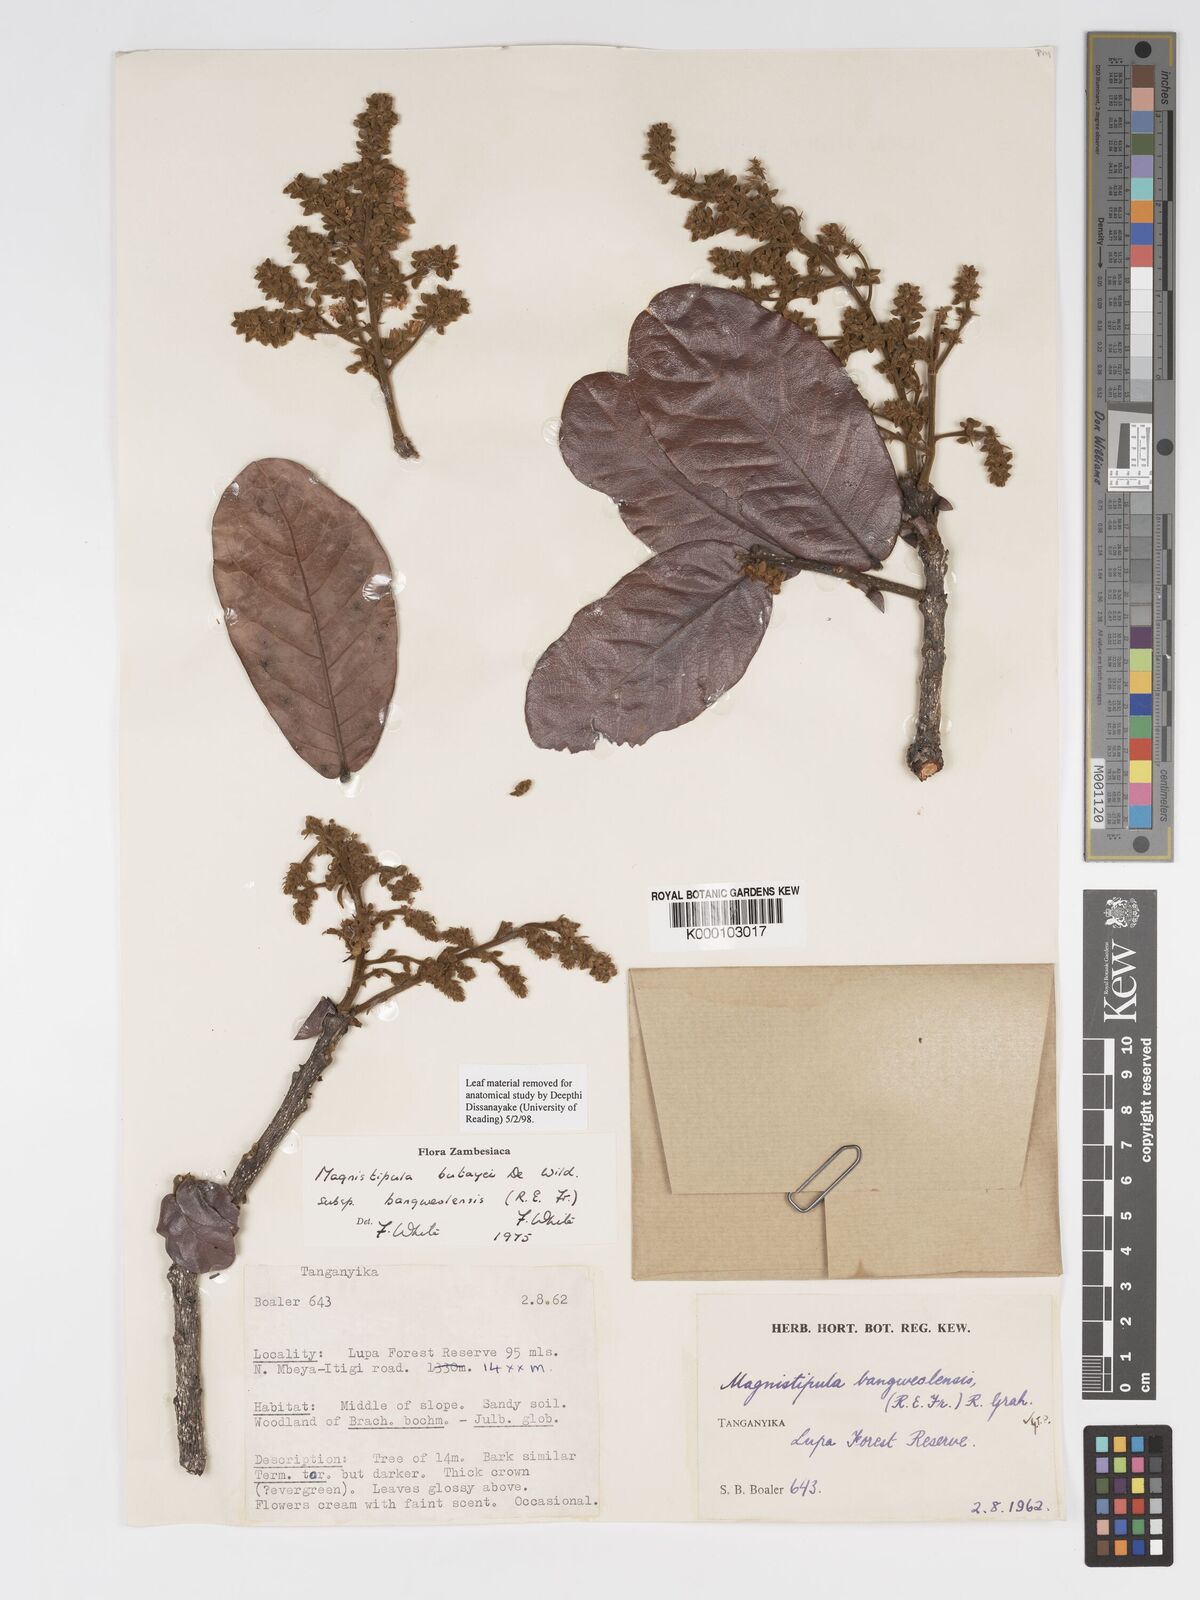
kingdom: Plantae
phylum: Tracheophyta
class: Magnoliopsida
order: Malpighiales
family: Chrysobalanaceae
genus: Magnistipula
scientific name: Magnistipula butayei
